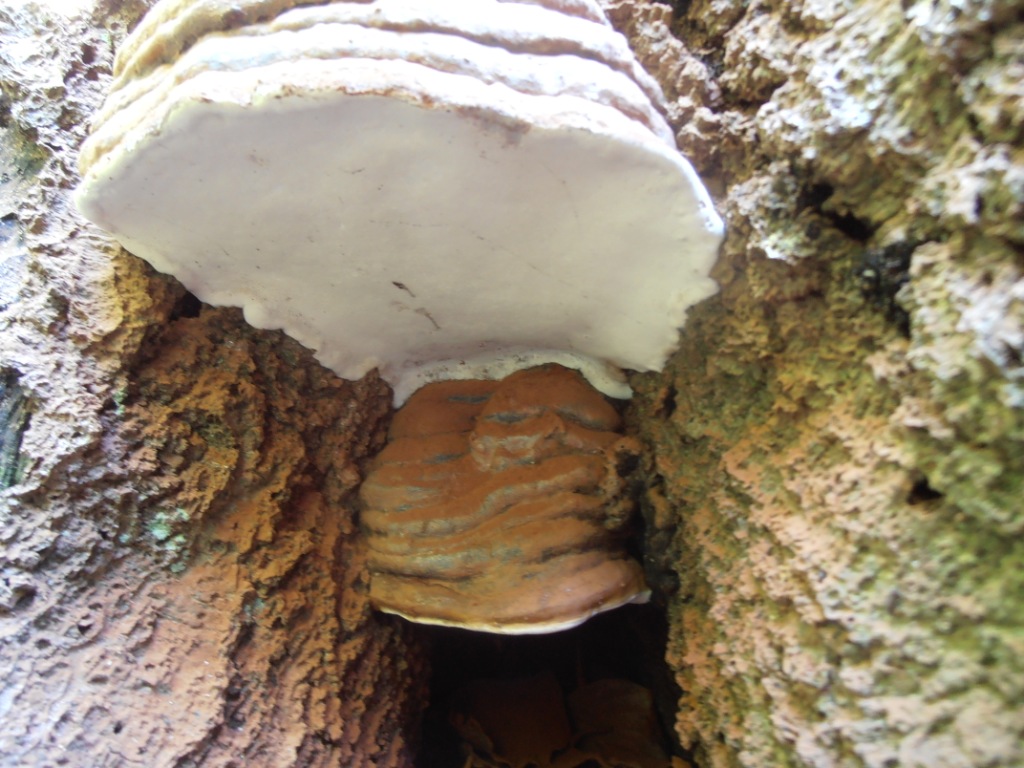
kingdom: Fungi
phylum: Basidiomycota
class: Agaricomycetes
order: Polyporales
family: Polyporaceae
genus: Ganoderma
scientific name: Ganoderma pfeifferi
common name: kobberrød lakporesvamp
